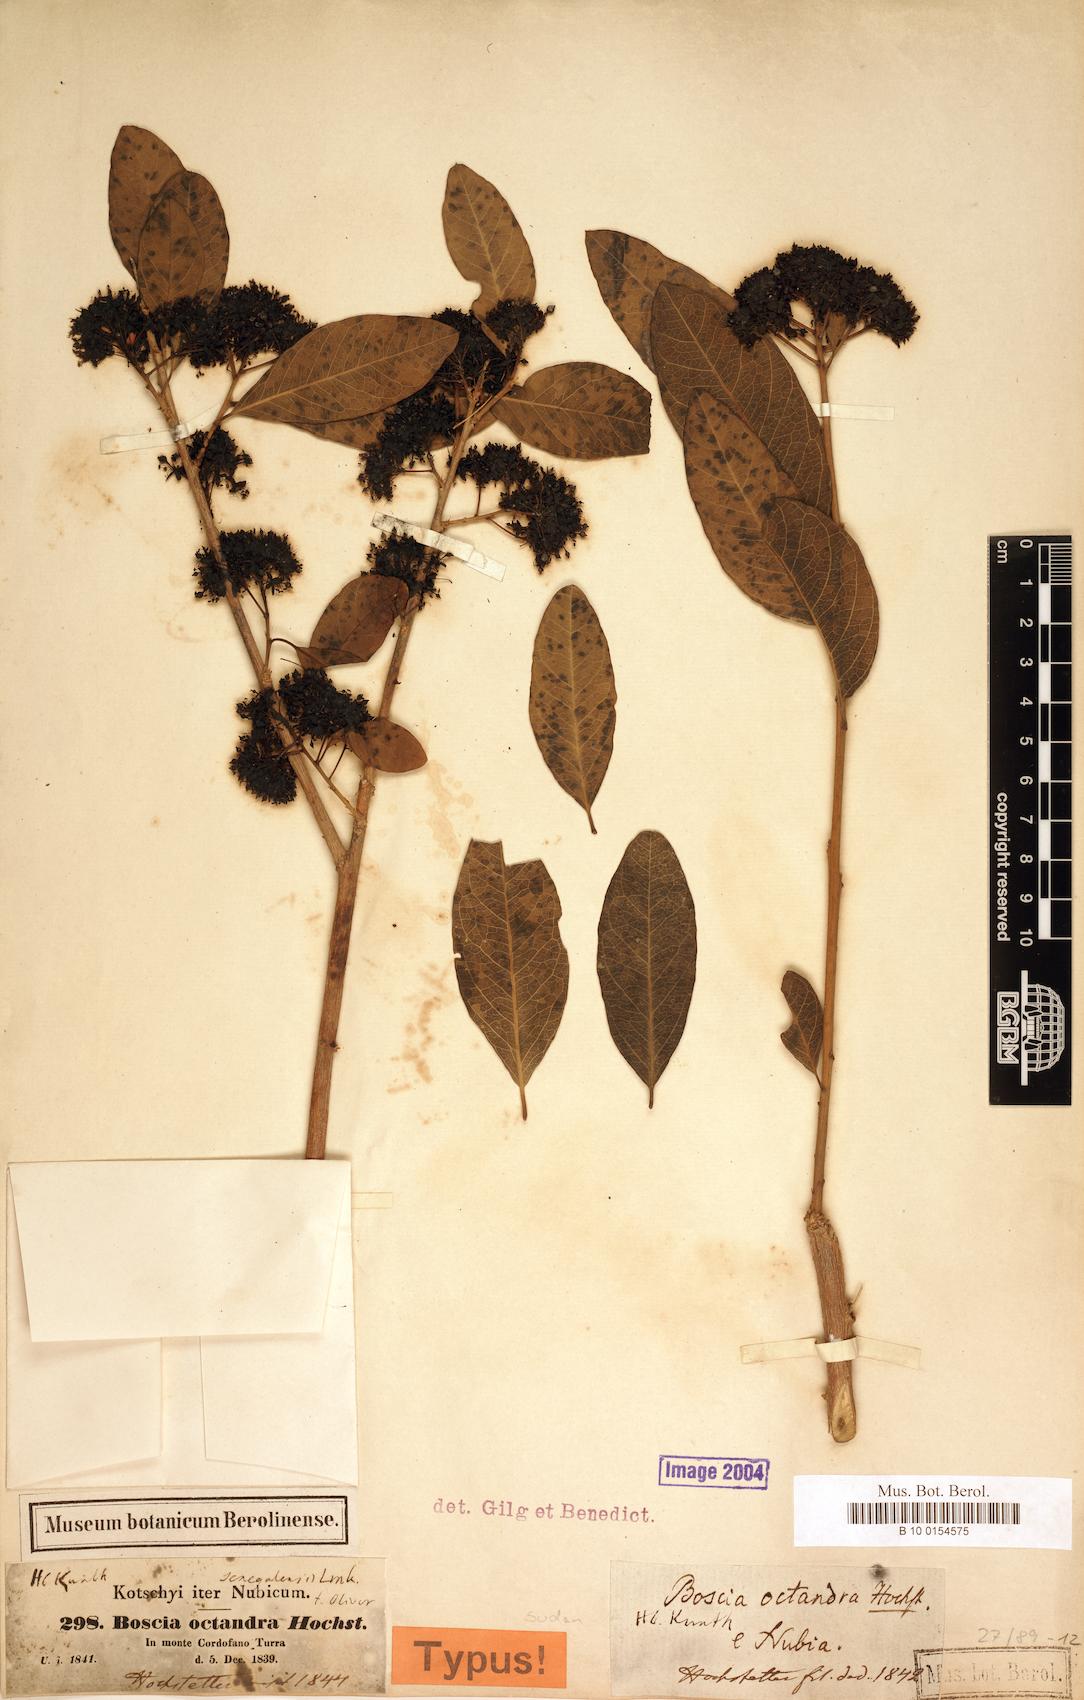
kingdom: Plantae
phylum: Tracheophyta
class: Magnoliopsida
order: Brassicales
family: Capparaceae
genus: Boscia
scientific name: Boscia senegalensis
